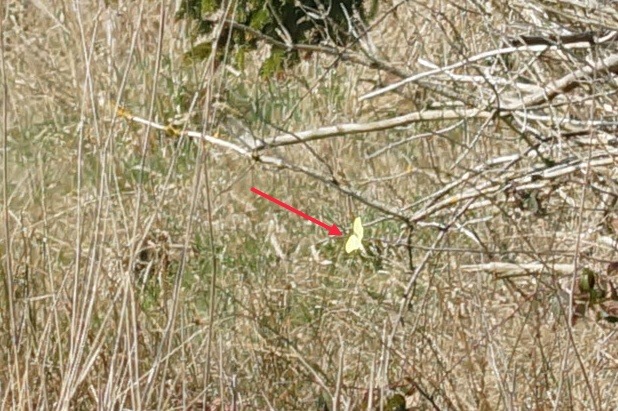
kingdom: Animalia
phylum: Arthropoda
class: Insecta
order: Lepidoptera
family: Pieridae
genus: Gonepteryx
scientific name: Gonepteryx rhamni
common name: Citronsommerfugl
